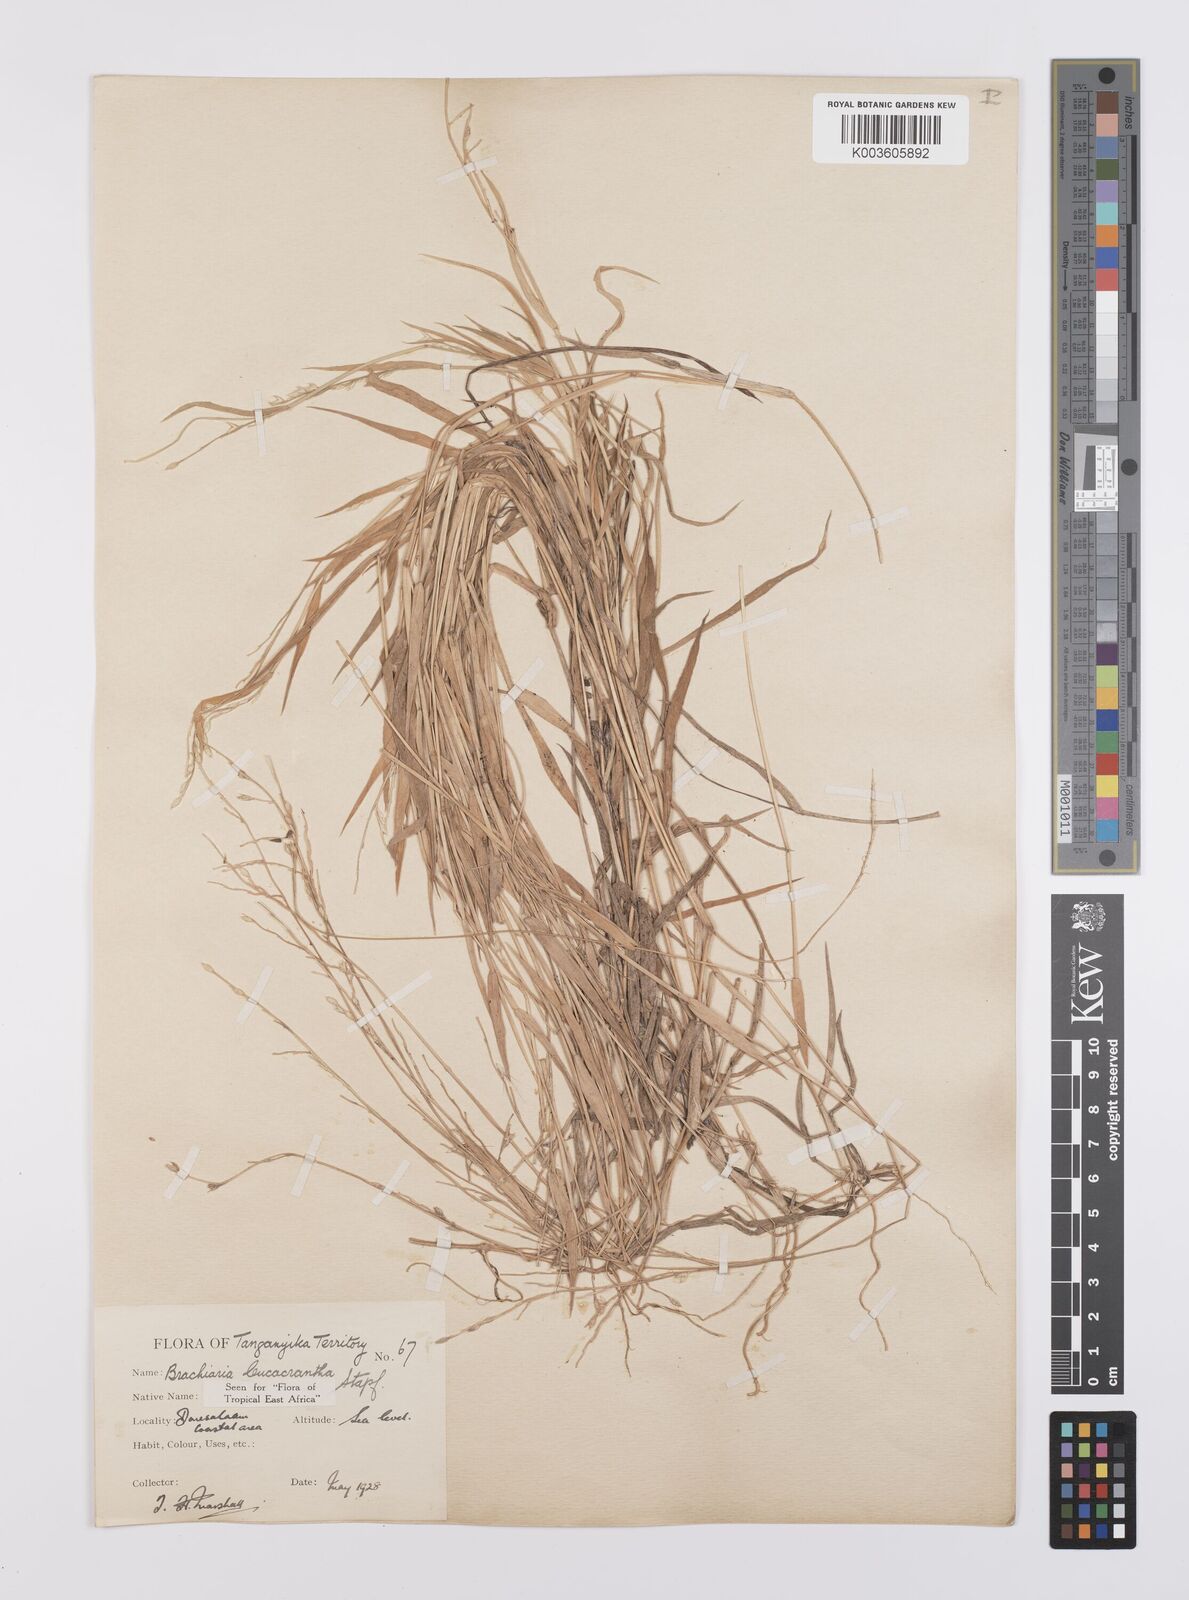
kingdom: Plantae
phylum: Tracheophyta
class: Liliopsida
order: Poales
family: Poaceae
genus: Urochloa
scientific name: Urochloa xantholeuca
